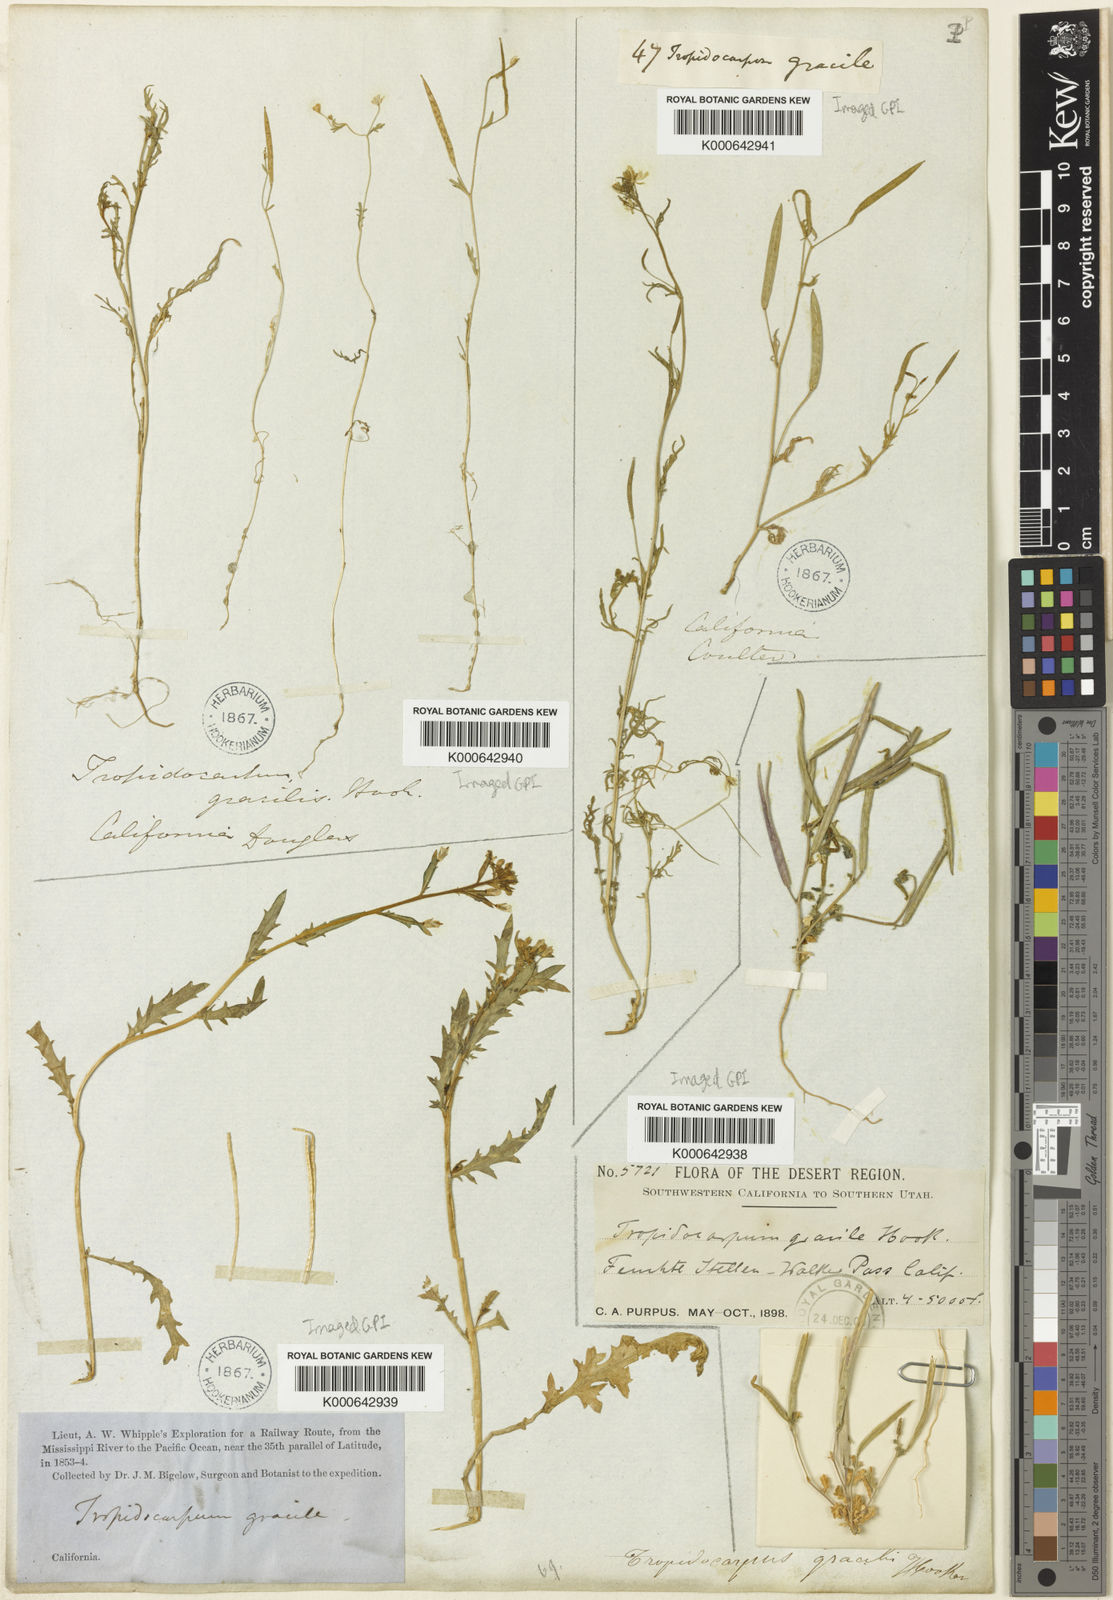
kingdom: Plantae
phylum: Tracheophyta
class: Magnoliopsida
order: Brassicales
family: Brassicaceae
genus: Tropidocarpum
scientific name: Tropidocarpum gracile
